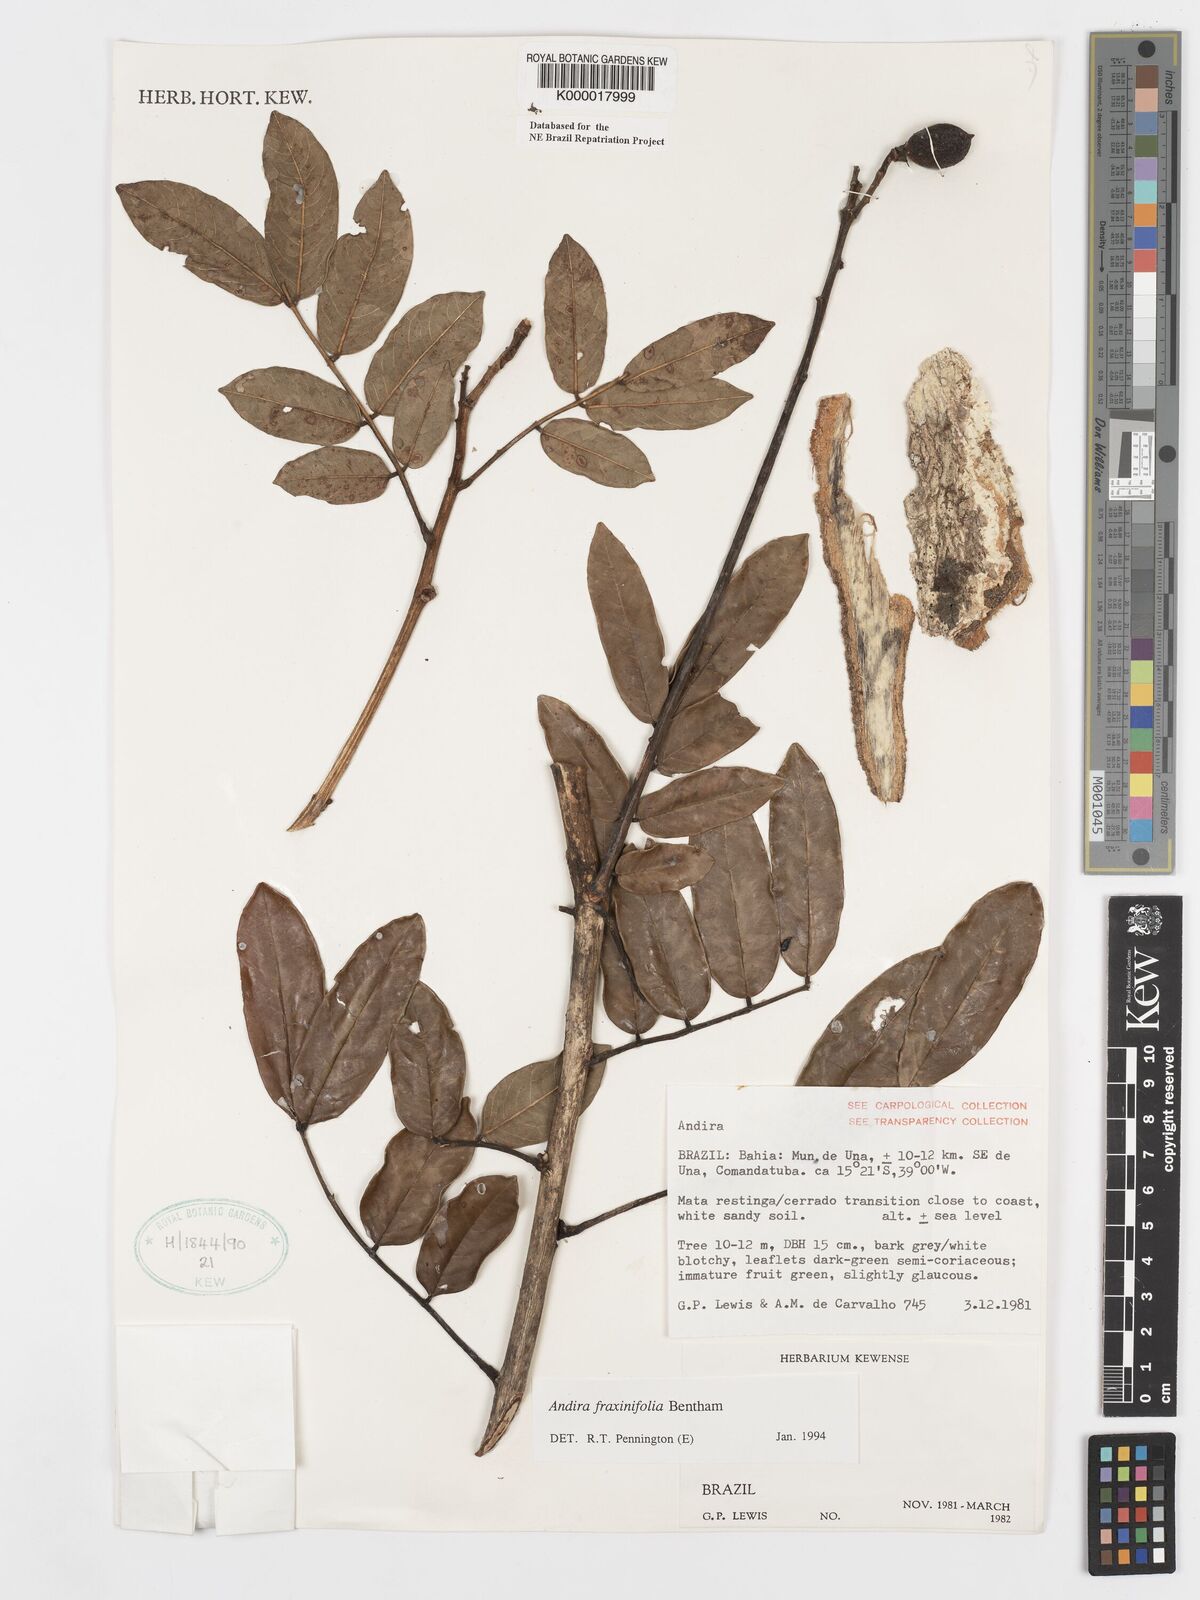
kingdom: Plantae
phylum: Tracheophyta
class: Magnoliopsida
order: Fabales
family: Fabaceae
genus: Andira
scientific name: Andira fraxinifolia
